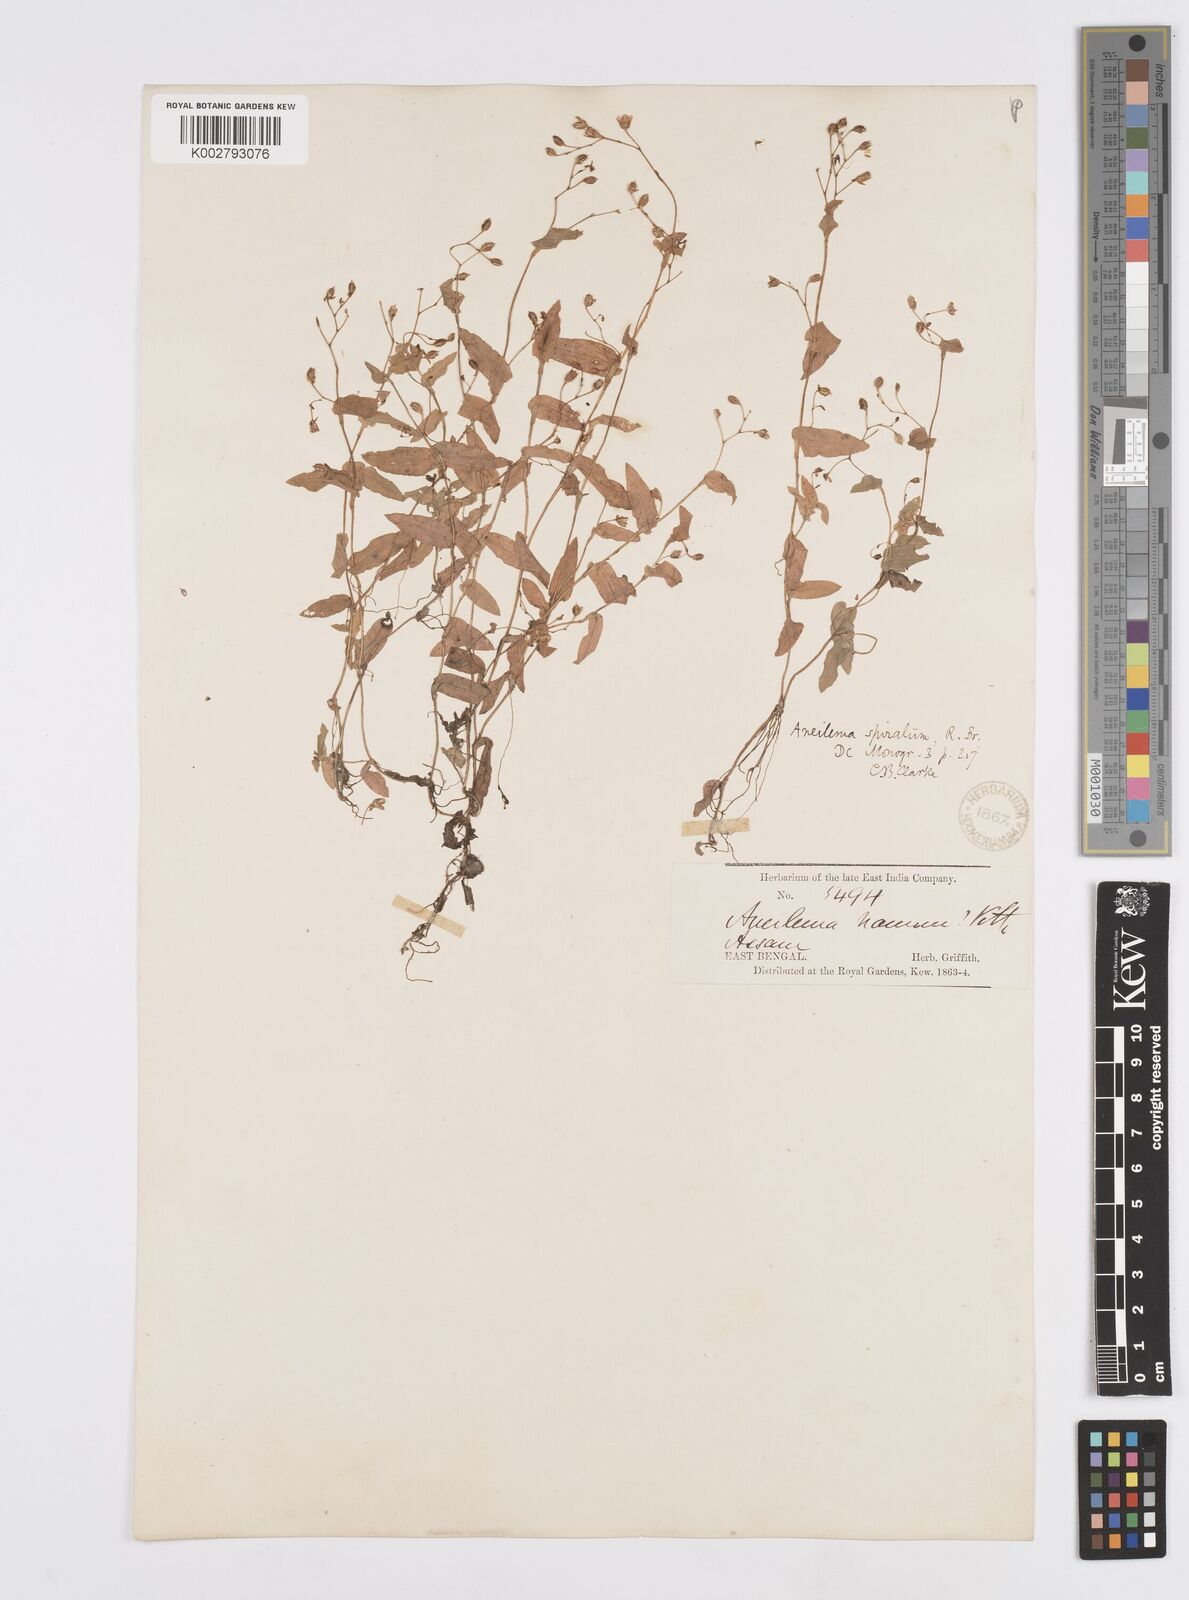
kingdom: Plantae
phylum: Tracheophyta
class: Liliopsida
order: Commelinales
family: Commelinaceae
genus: Murdannia
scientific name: Murdannia spirata
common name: Asiatic dewflower
